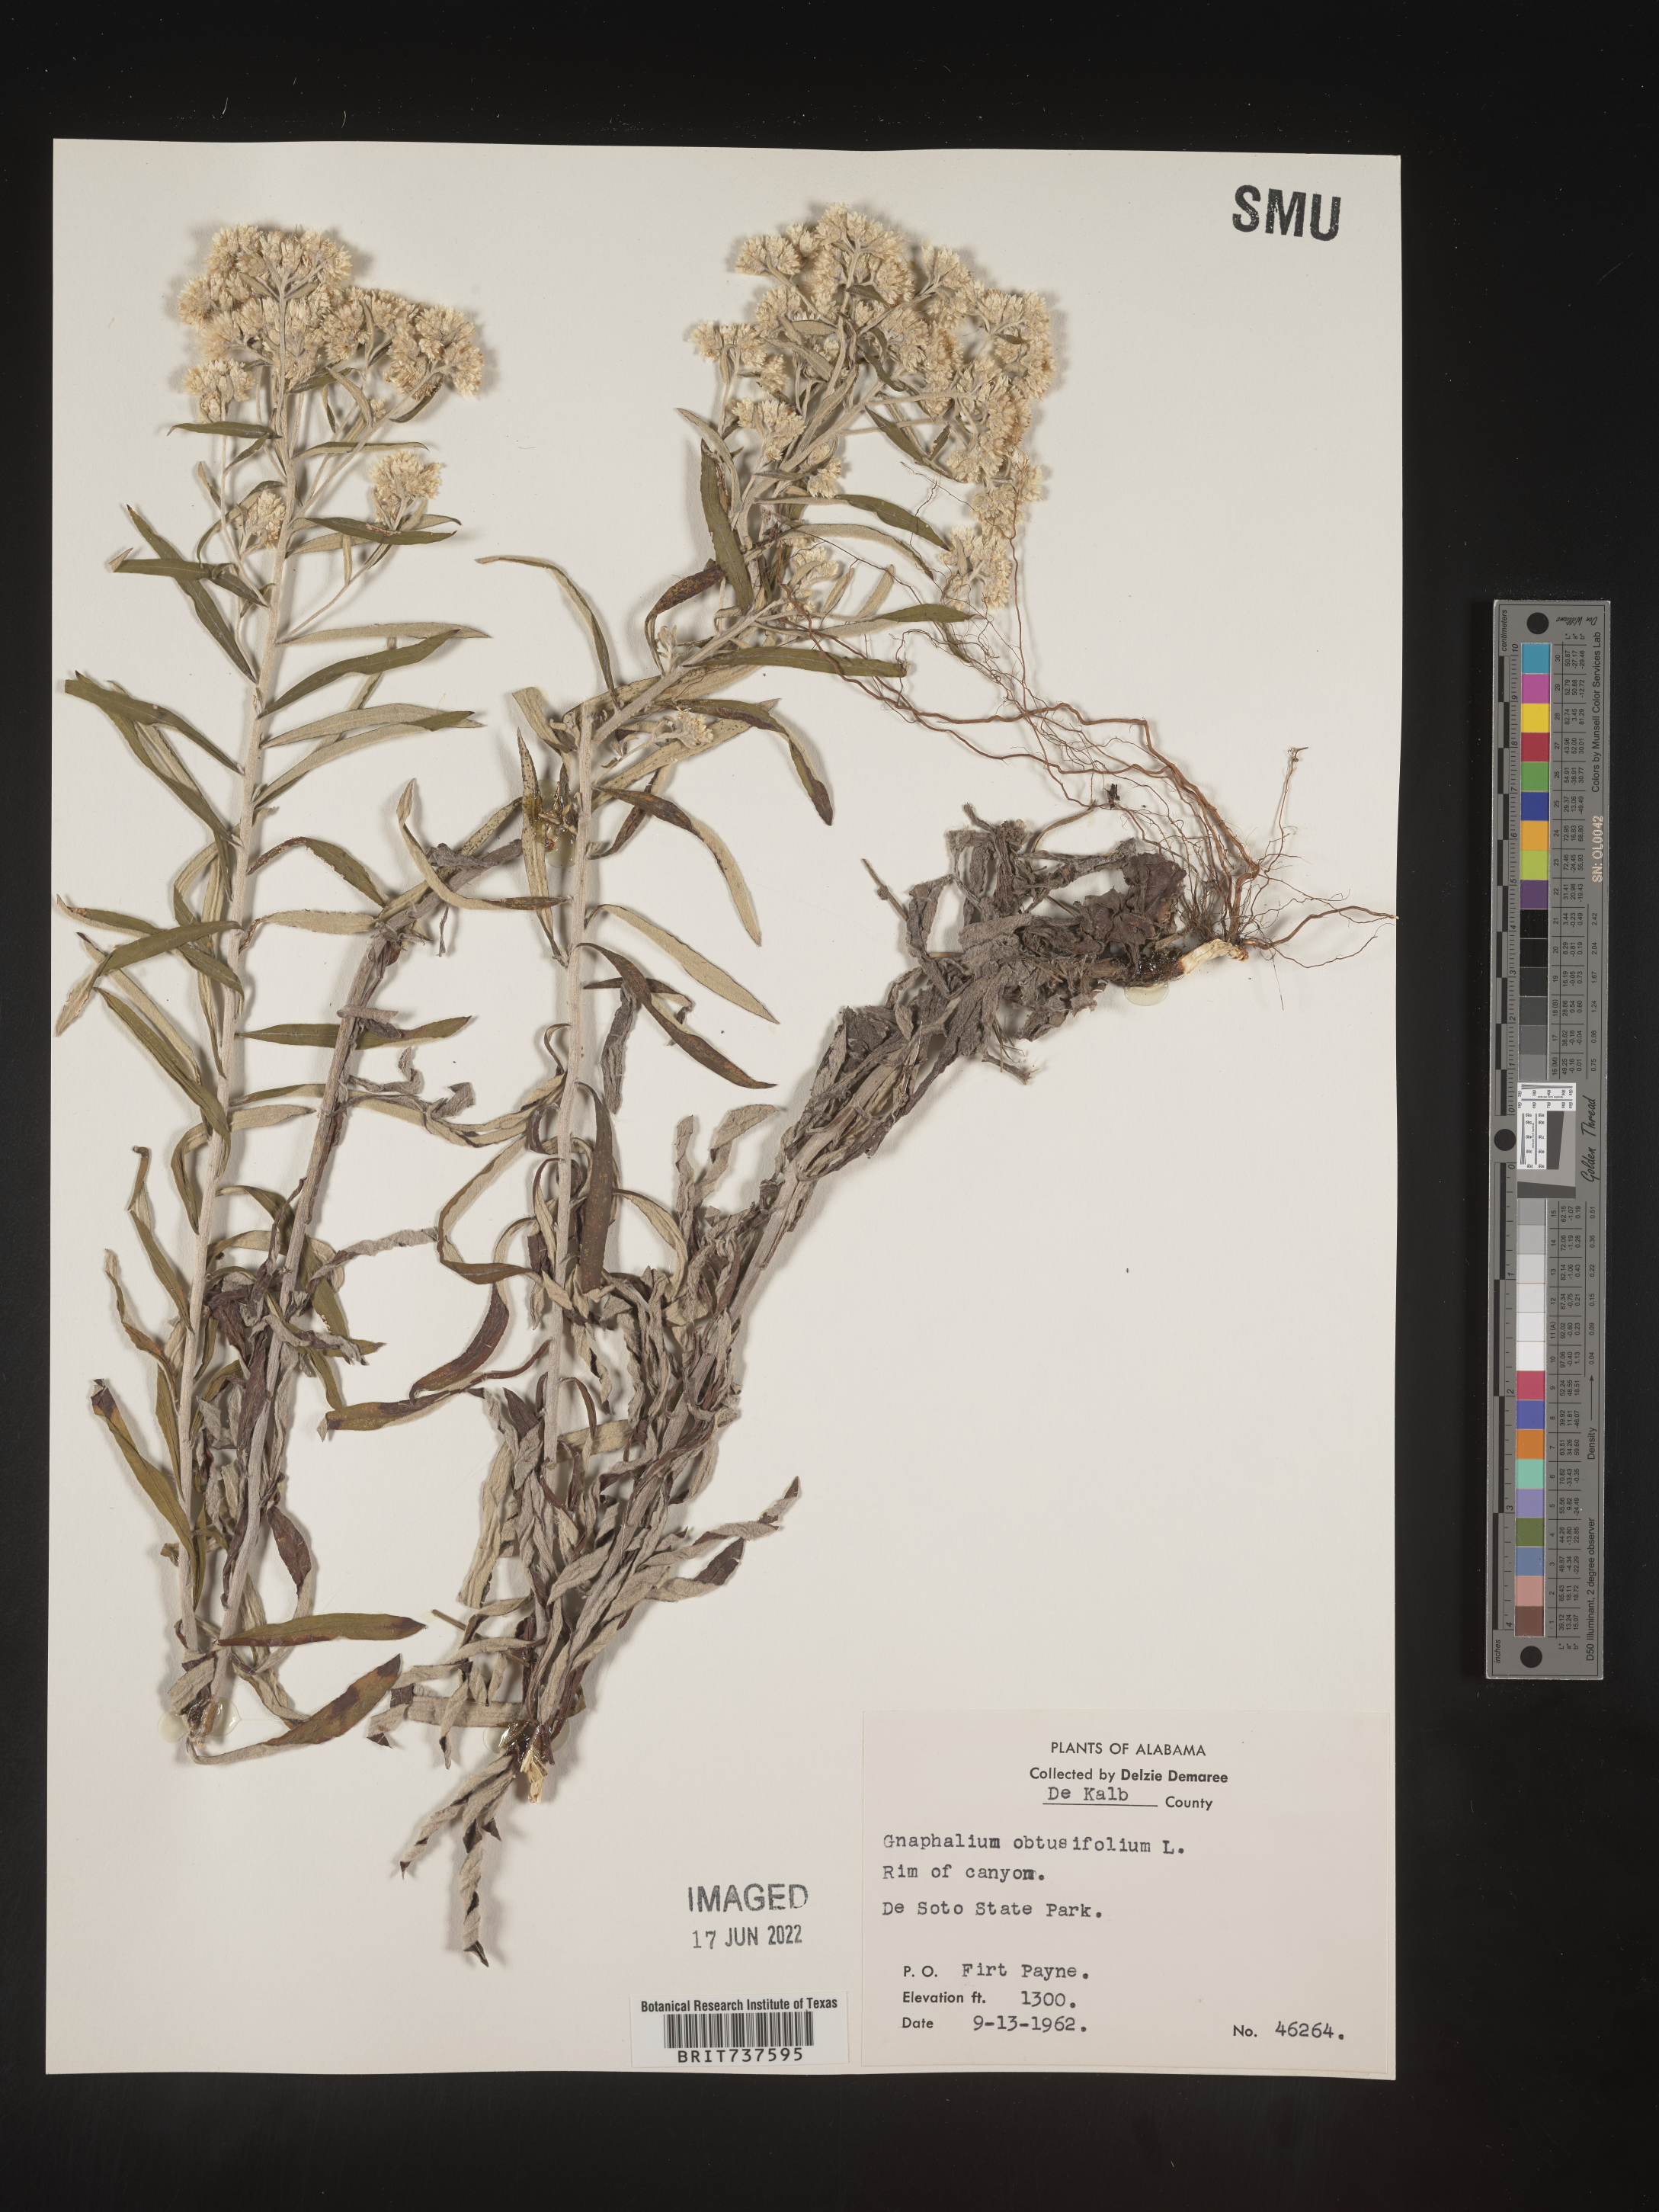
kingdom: Plantae
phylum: Tracheophyta
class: Magnoliopsida
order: Asterales
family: Asteraceae
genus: Pseudognaphalium
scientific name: Pseudognaphalium obtusifolium
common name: Eastern rabbit-tobacco
